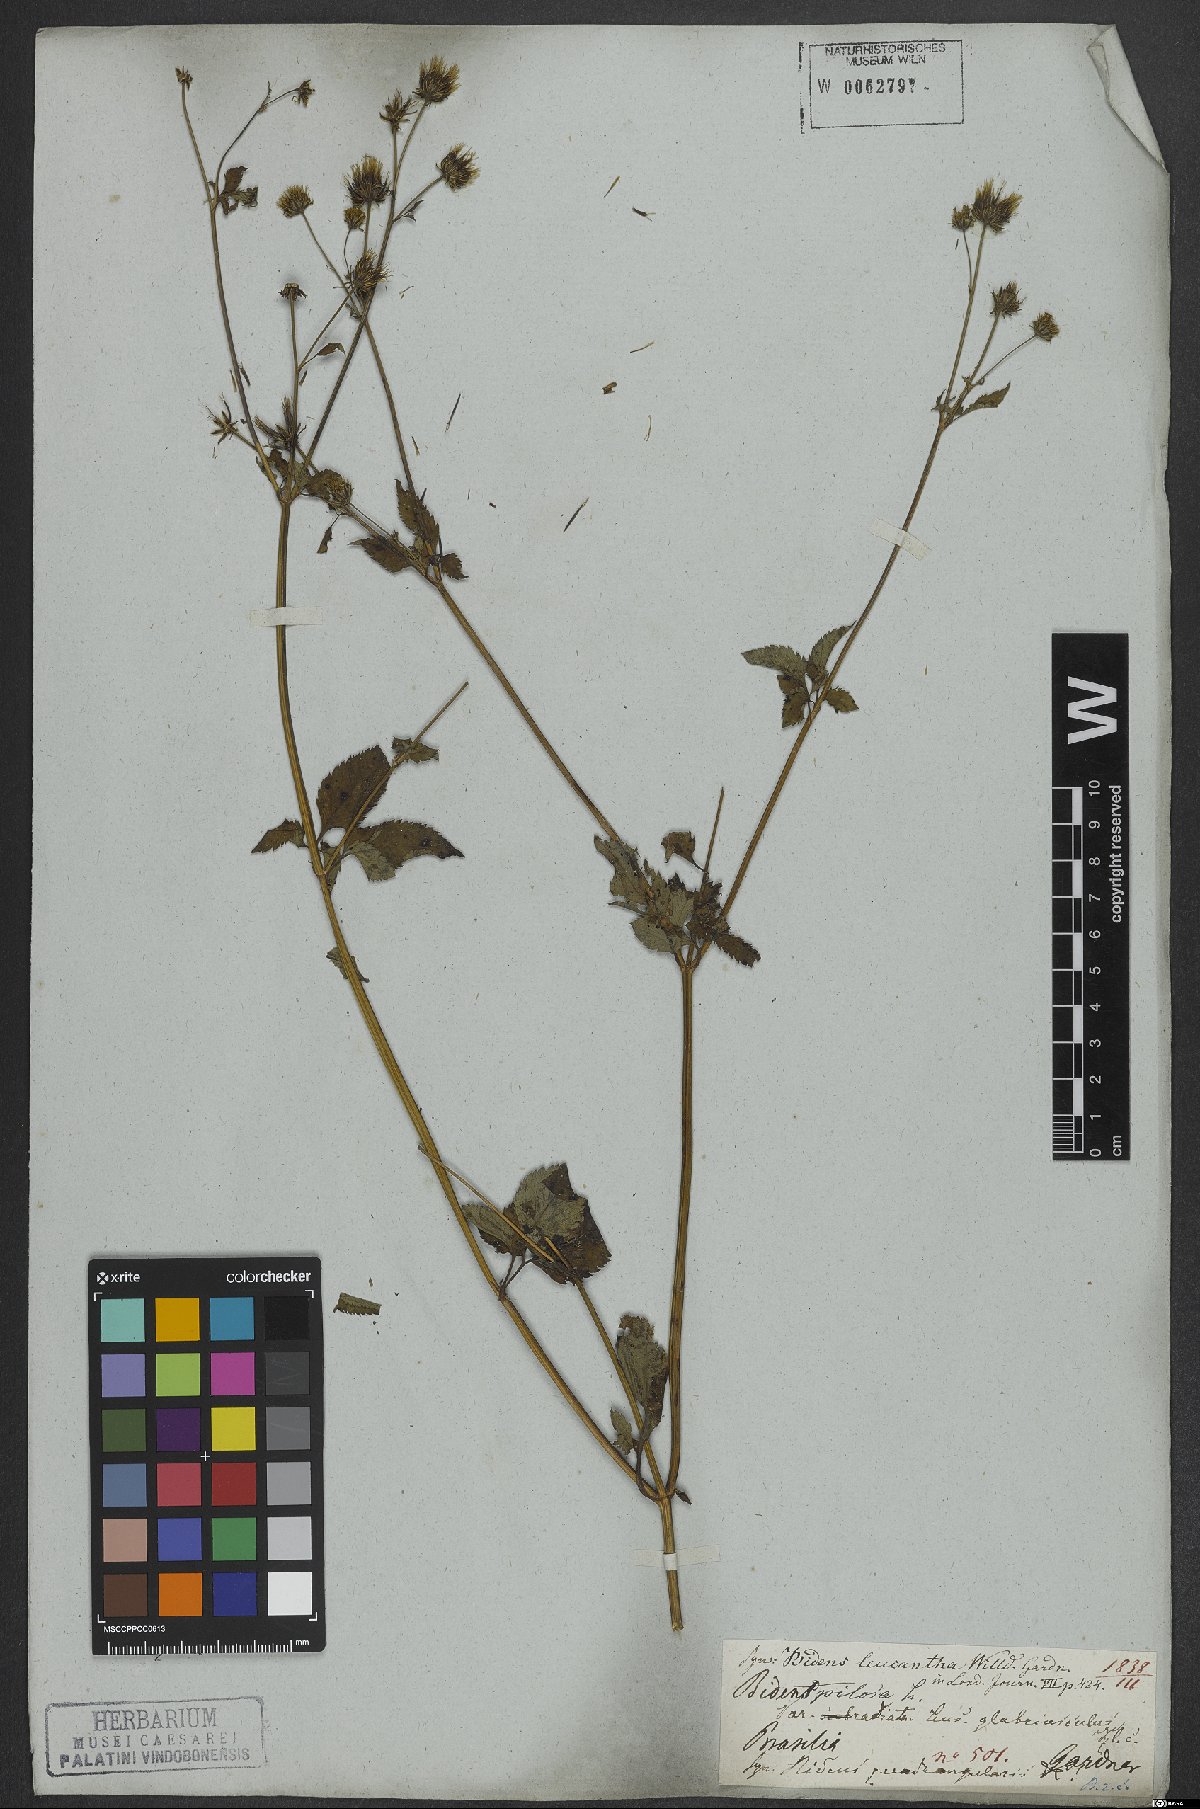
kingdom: Plantae
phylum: Tracheophyta
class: Magnoliopsida
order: Asterales
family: Asteraceae
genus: Bidens
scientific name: Bidens pilosa
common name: Black-jack
